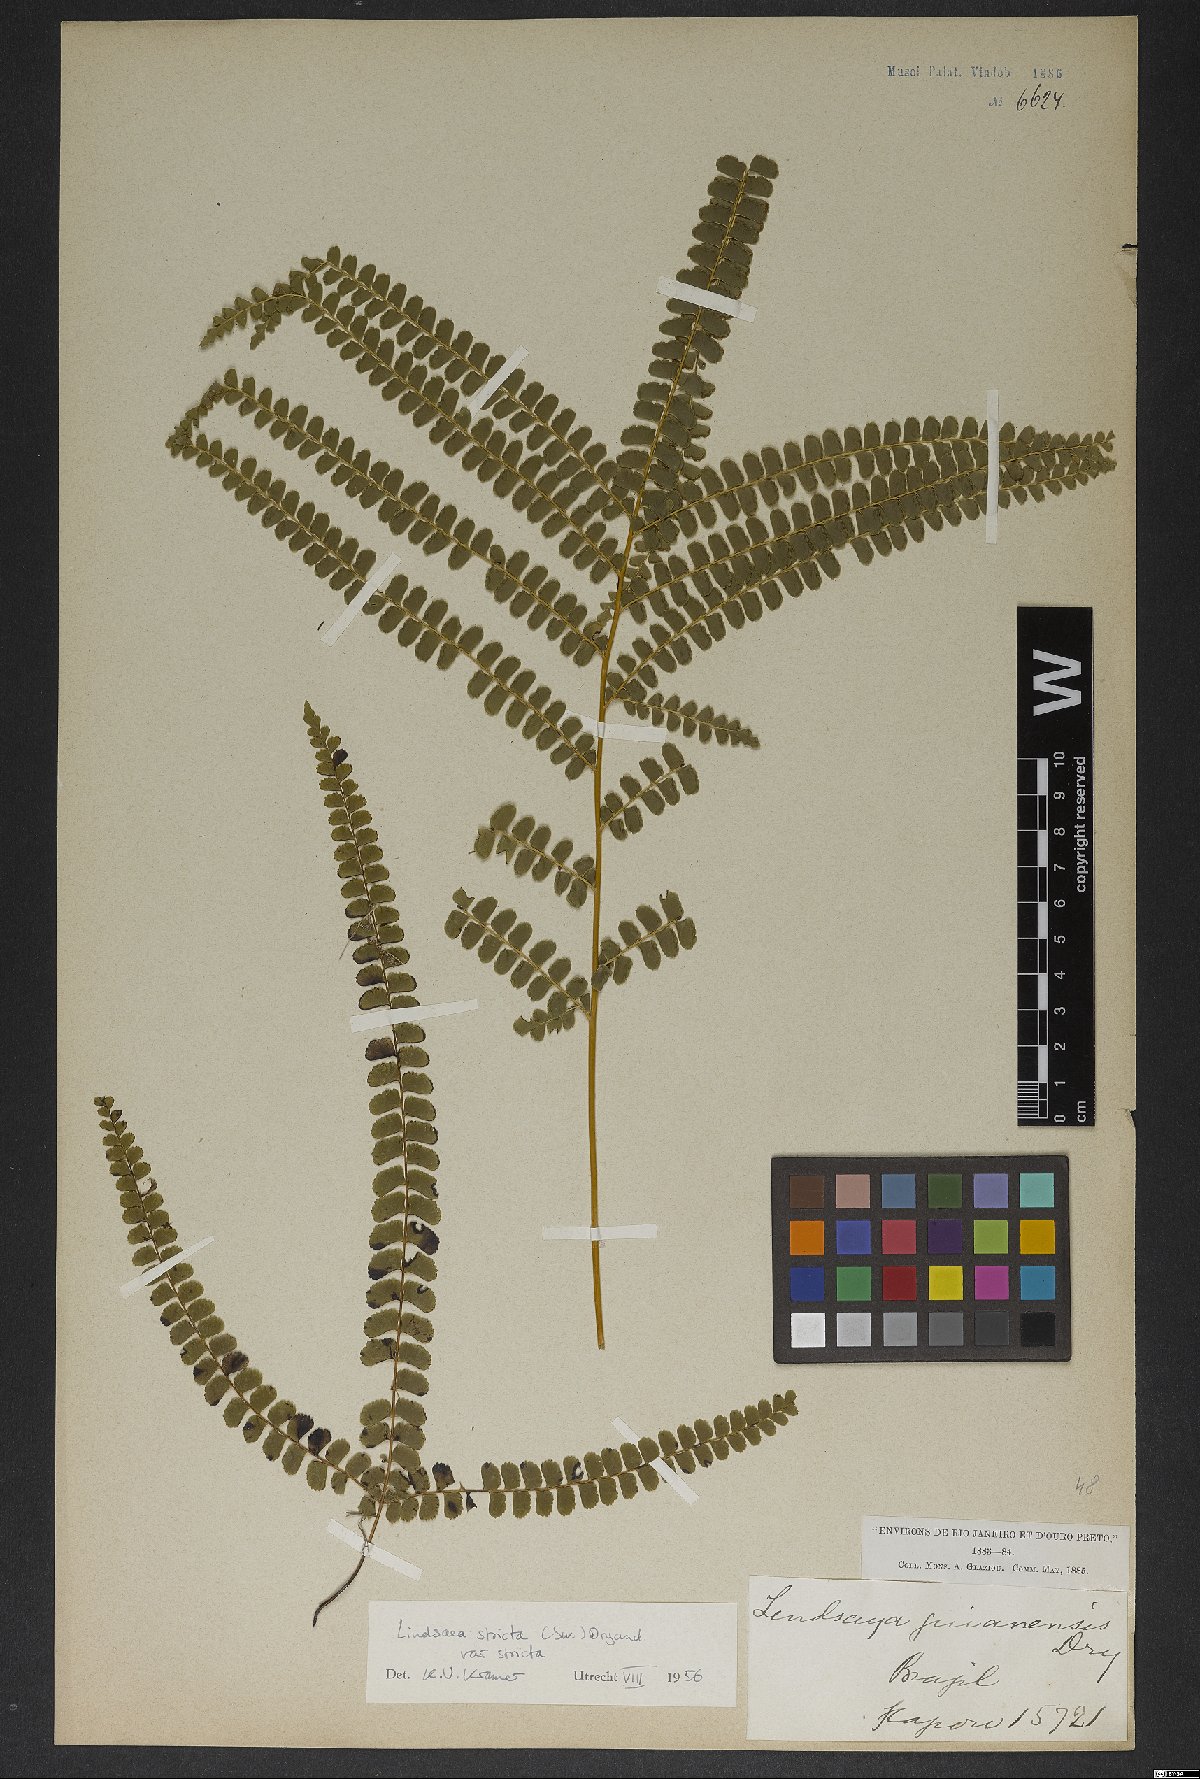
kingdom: Plantae
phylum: Tracheophyta
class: Polypodiopsida
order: Polypodiales
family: Lindsaeaceae
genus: Lindsaea
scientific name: Lindsaea stricta
